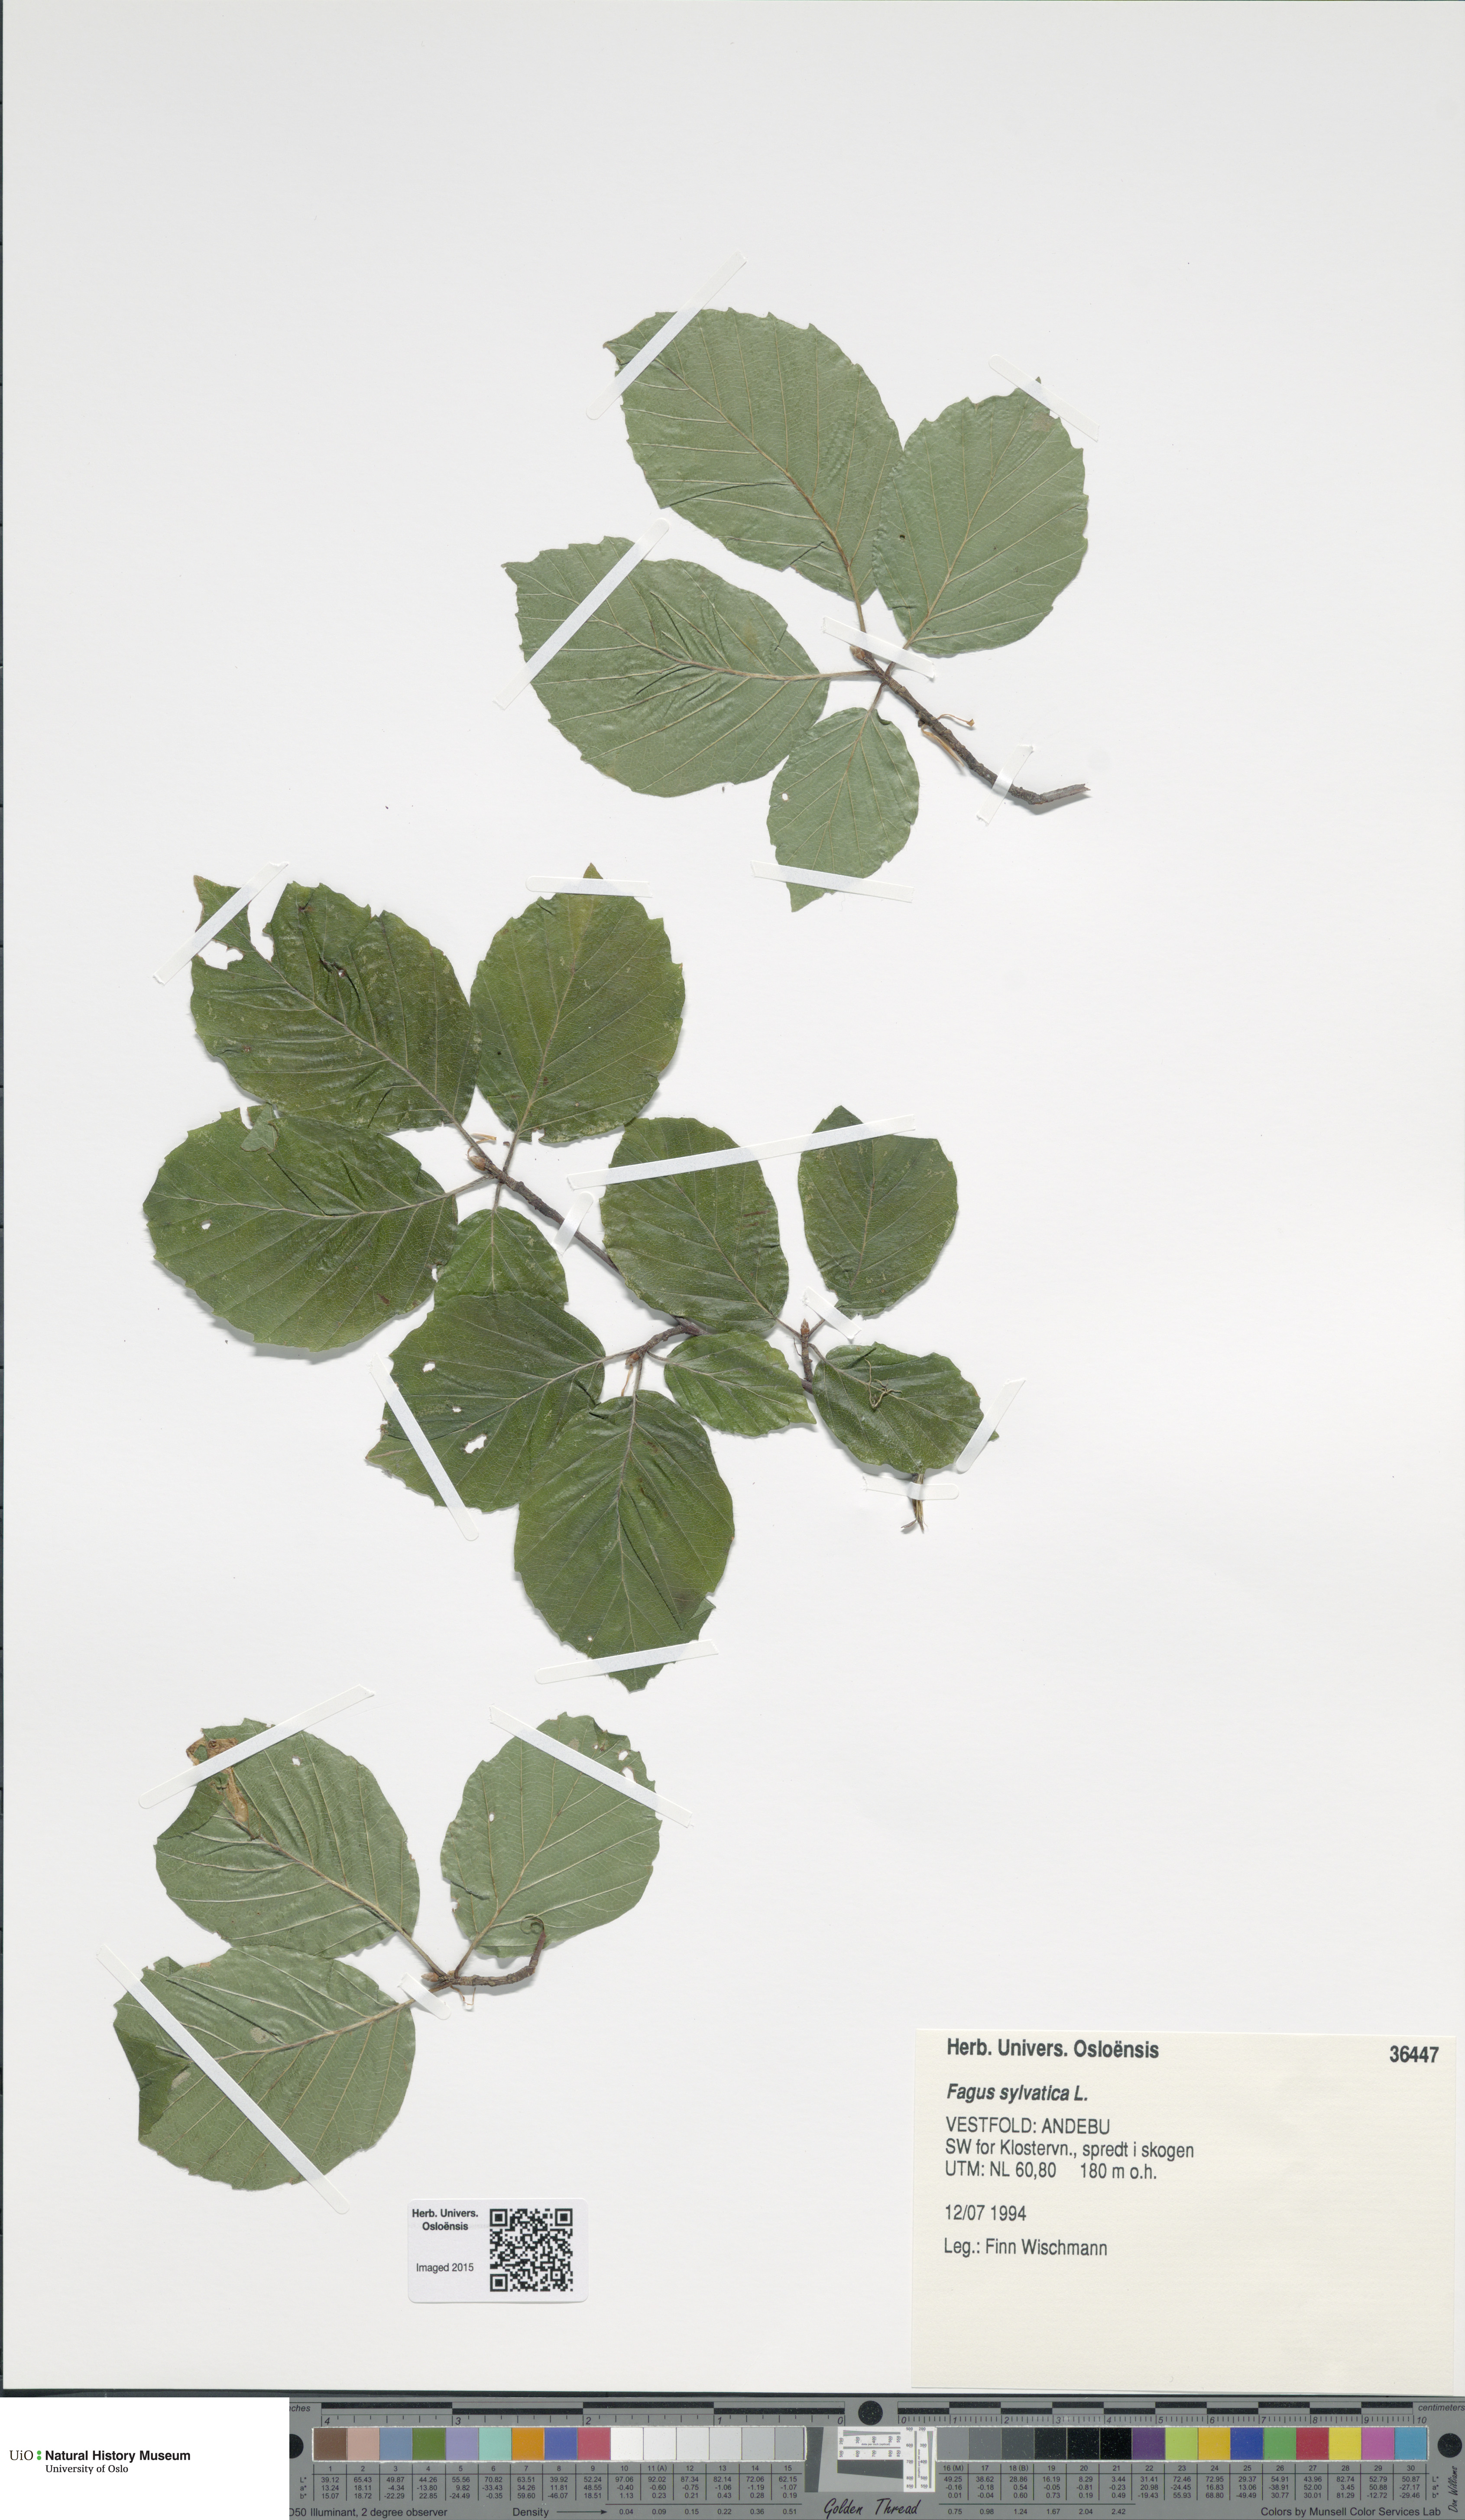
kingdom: Plantae
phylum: Tracheophyta
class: Magnoliopsida
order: Fagales
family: Fagaceae
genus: Fagus
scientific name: Fagus sylvatica
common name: Beech
